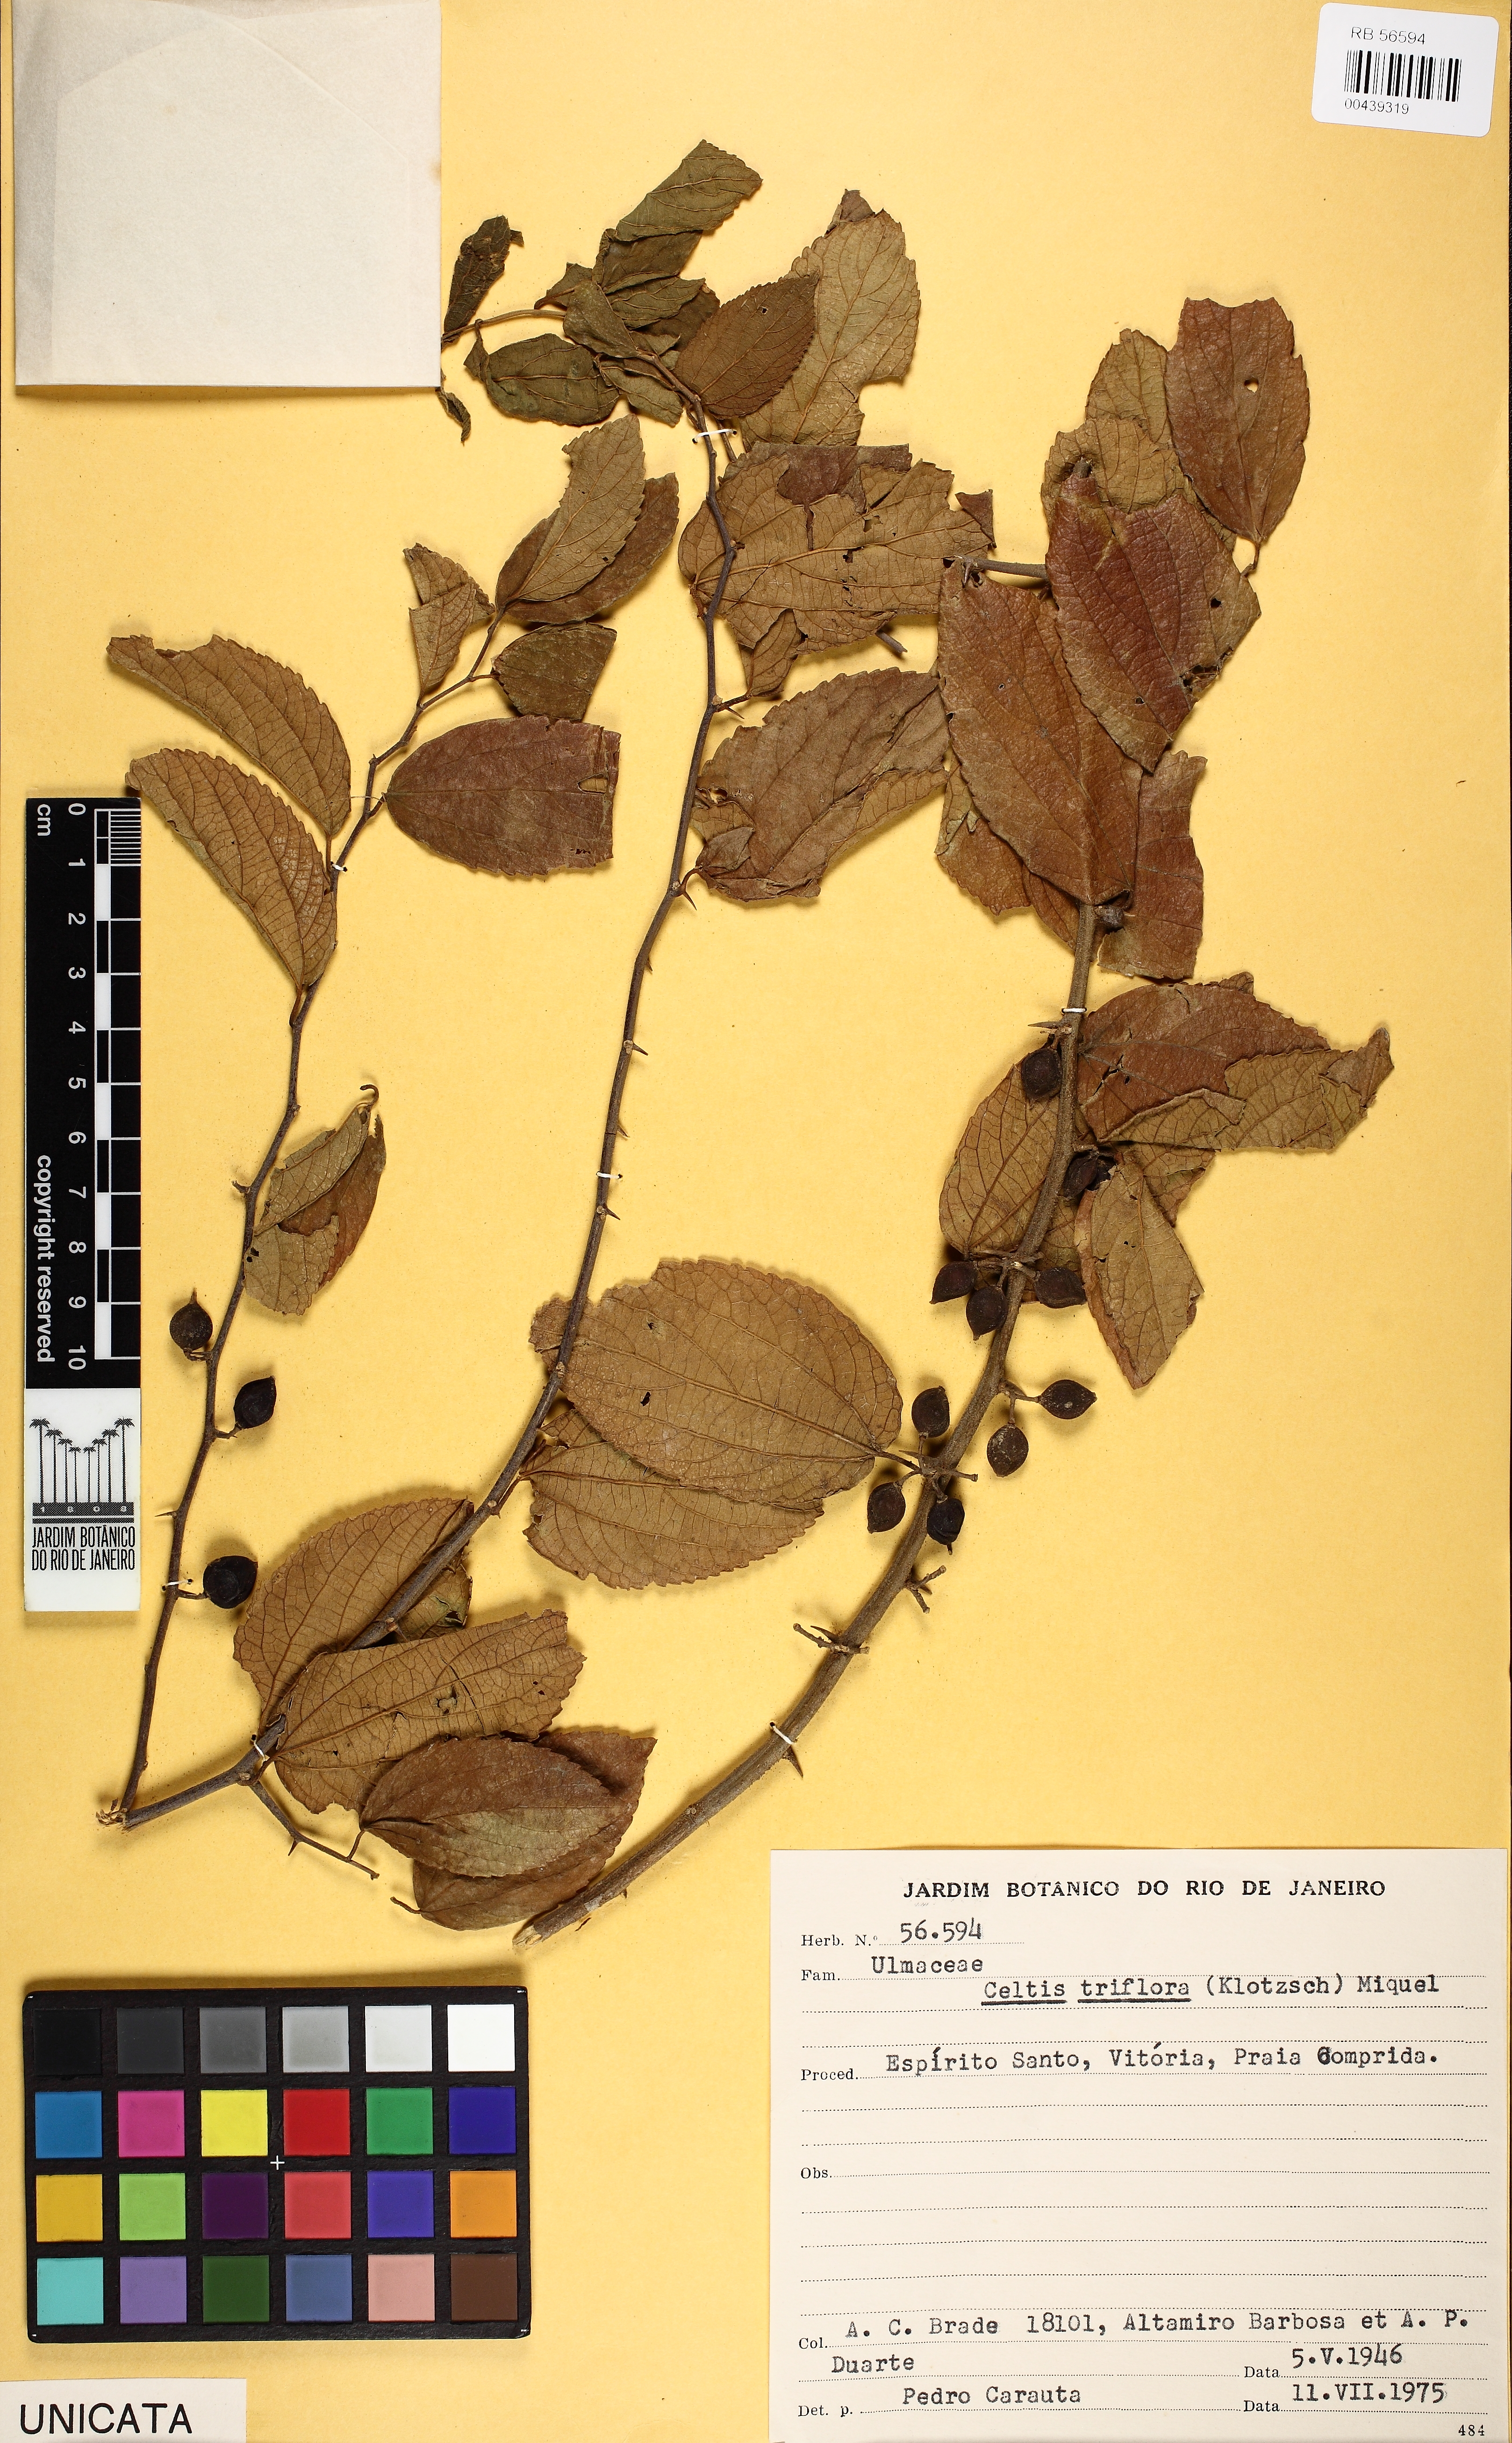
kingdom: Plantae
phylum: Tracheophyta
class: Magnoliopsida
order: Rosales
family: Cannabaceae
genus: Celtis
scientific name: Celtis spinosa
